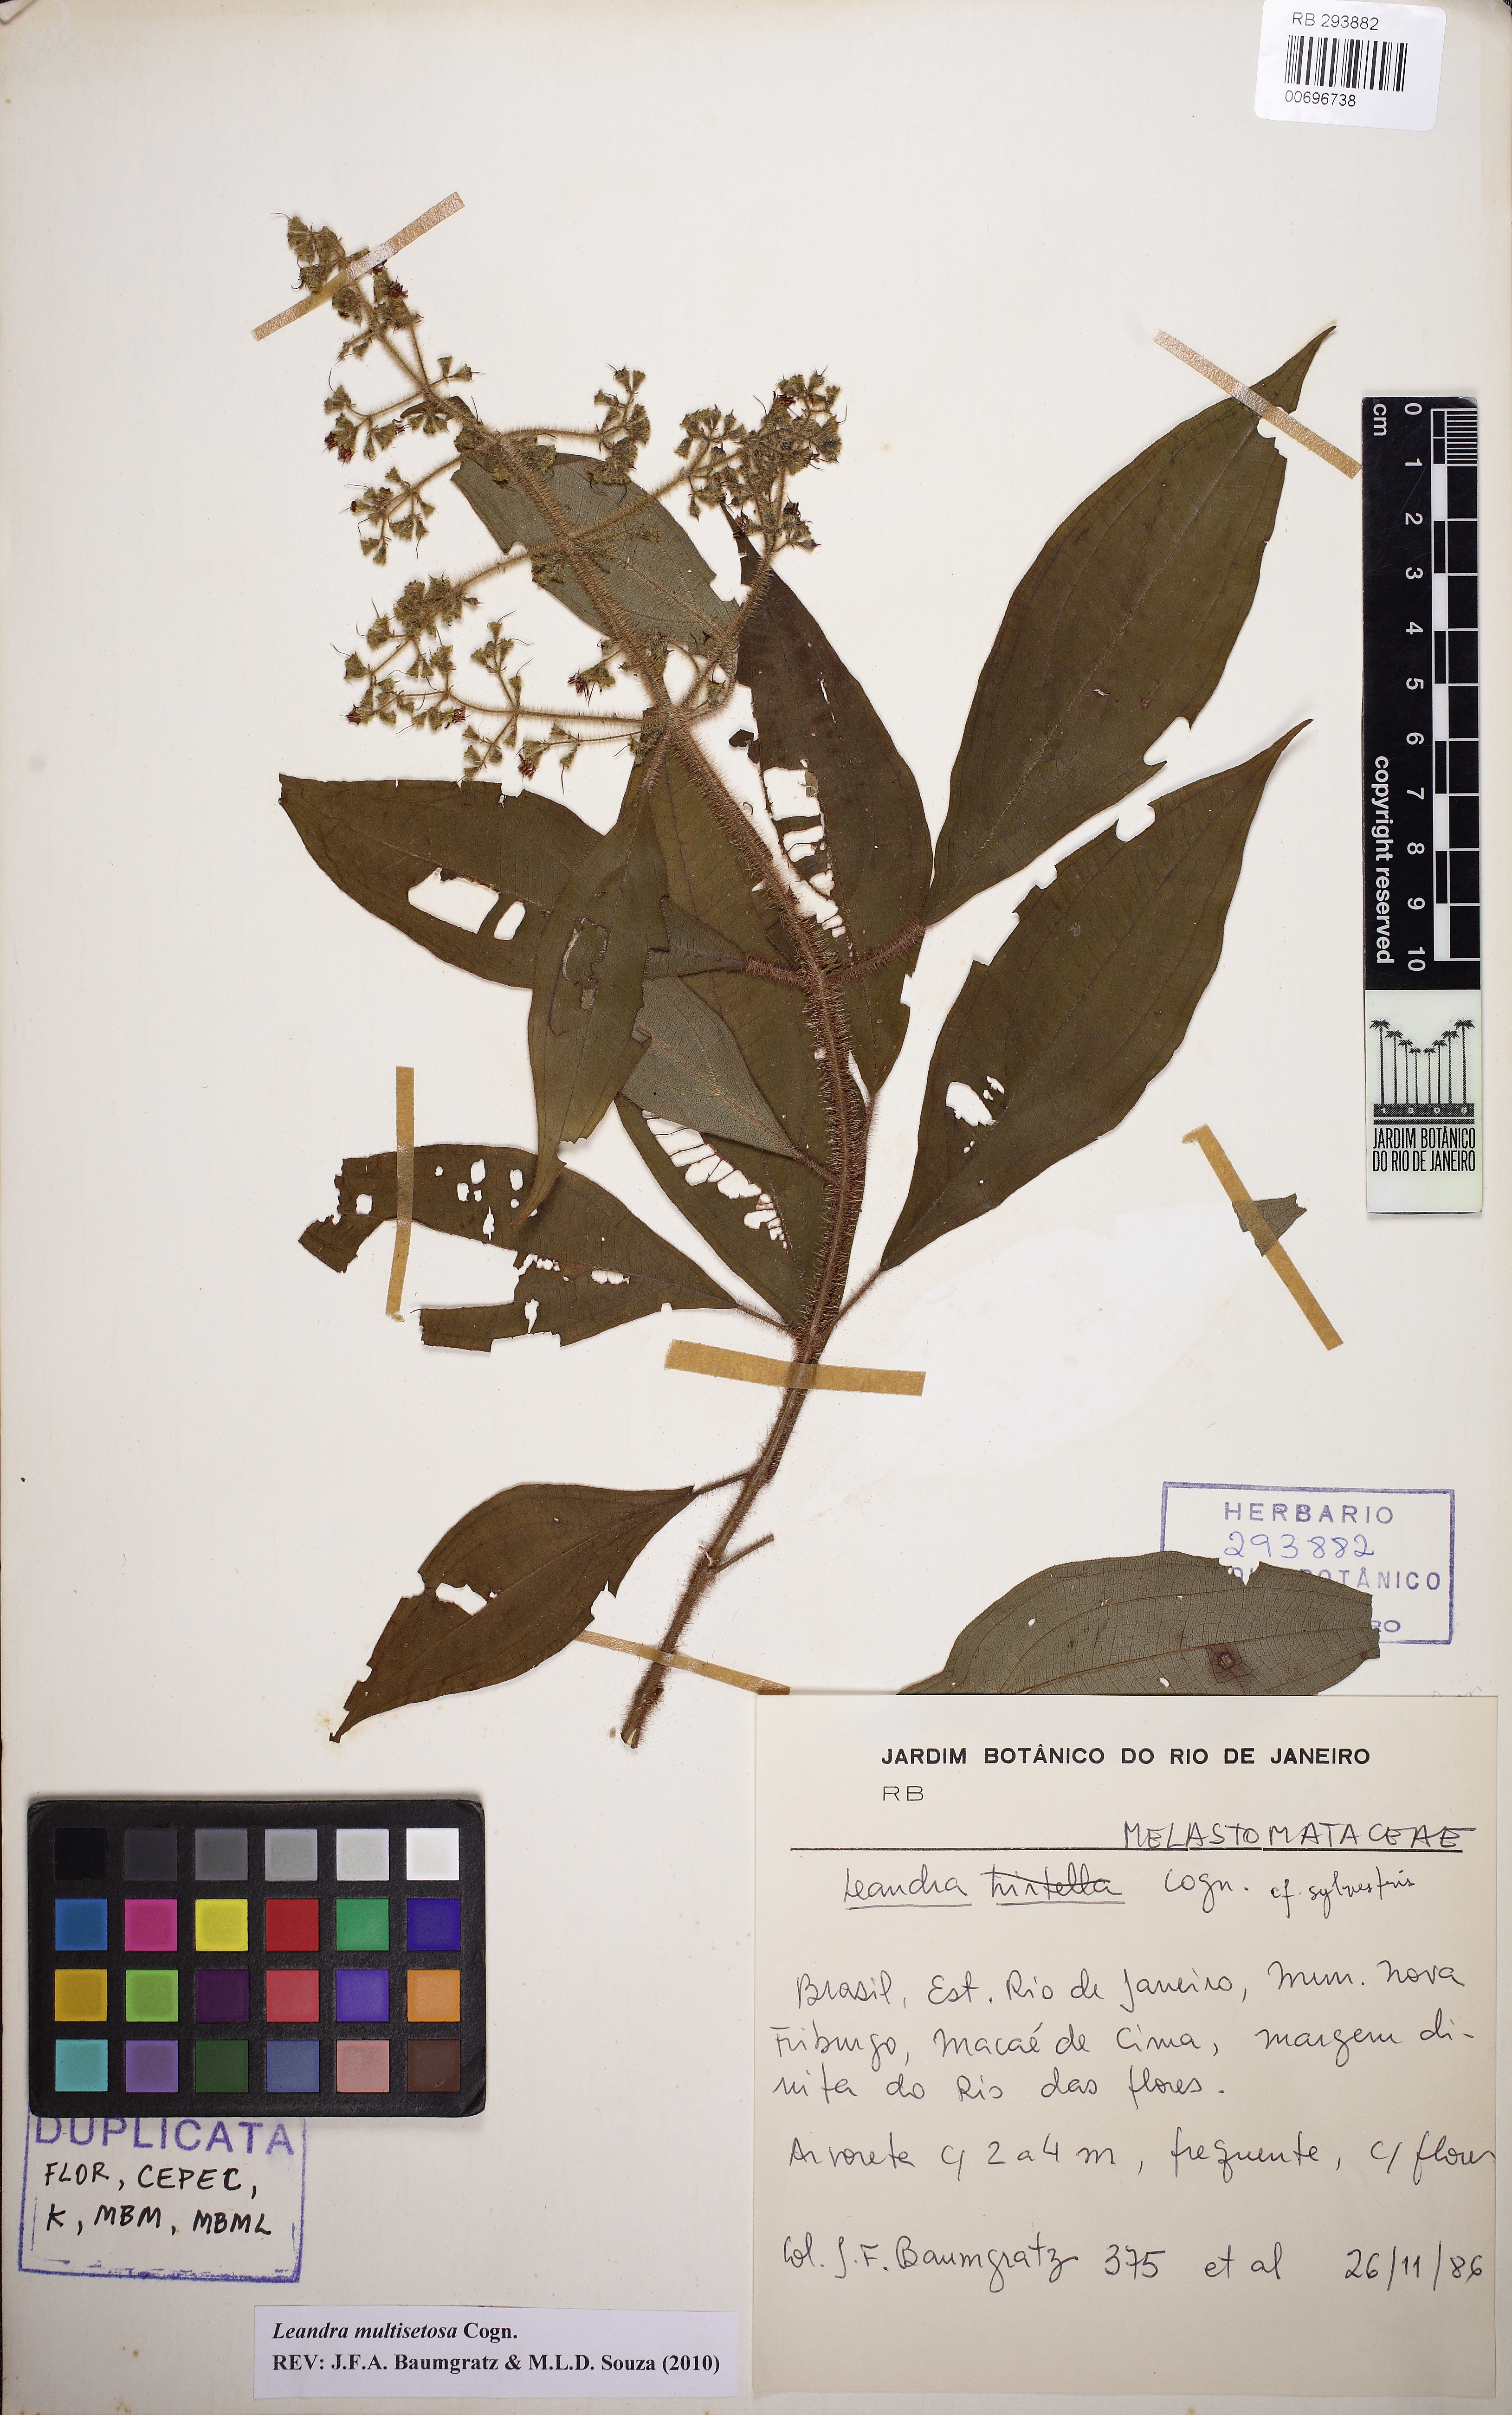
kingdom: Plantae
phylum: Tracheophyta
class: Magnoliopsida
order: Myrtales
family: Melastomataceae
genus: Miconia
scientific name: Miconia multisetosa
